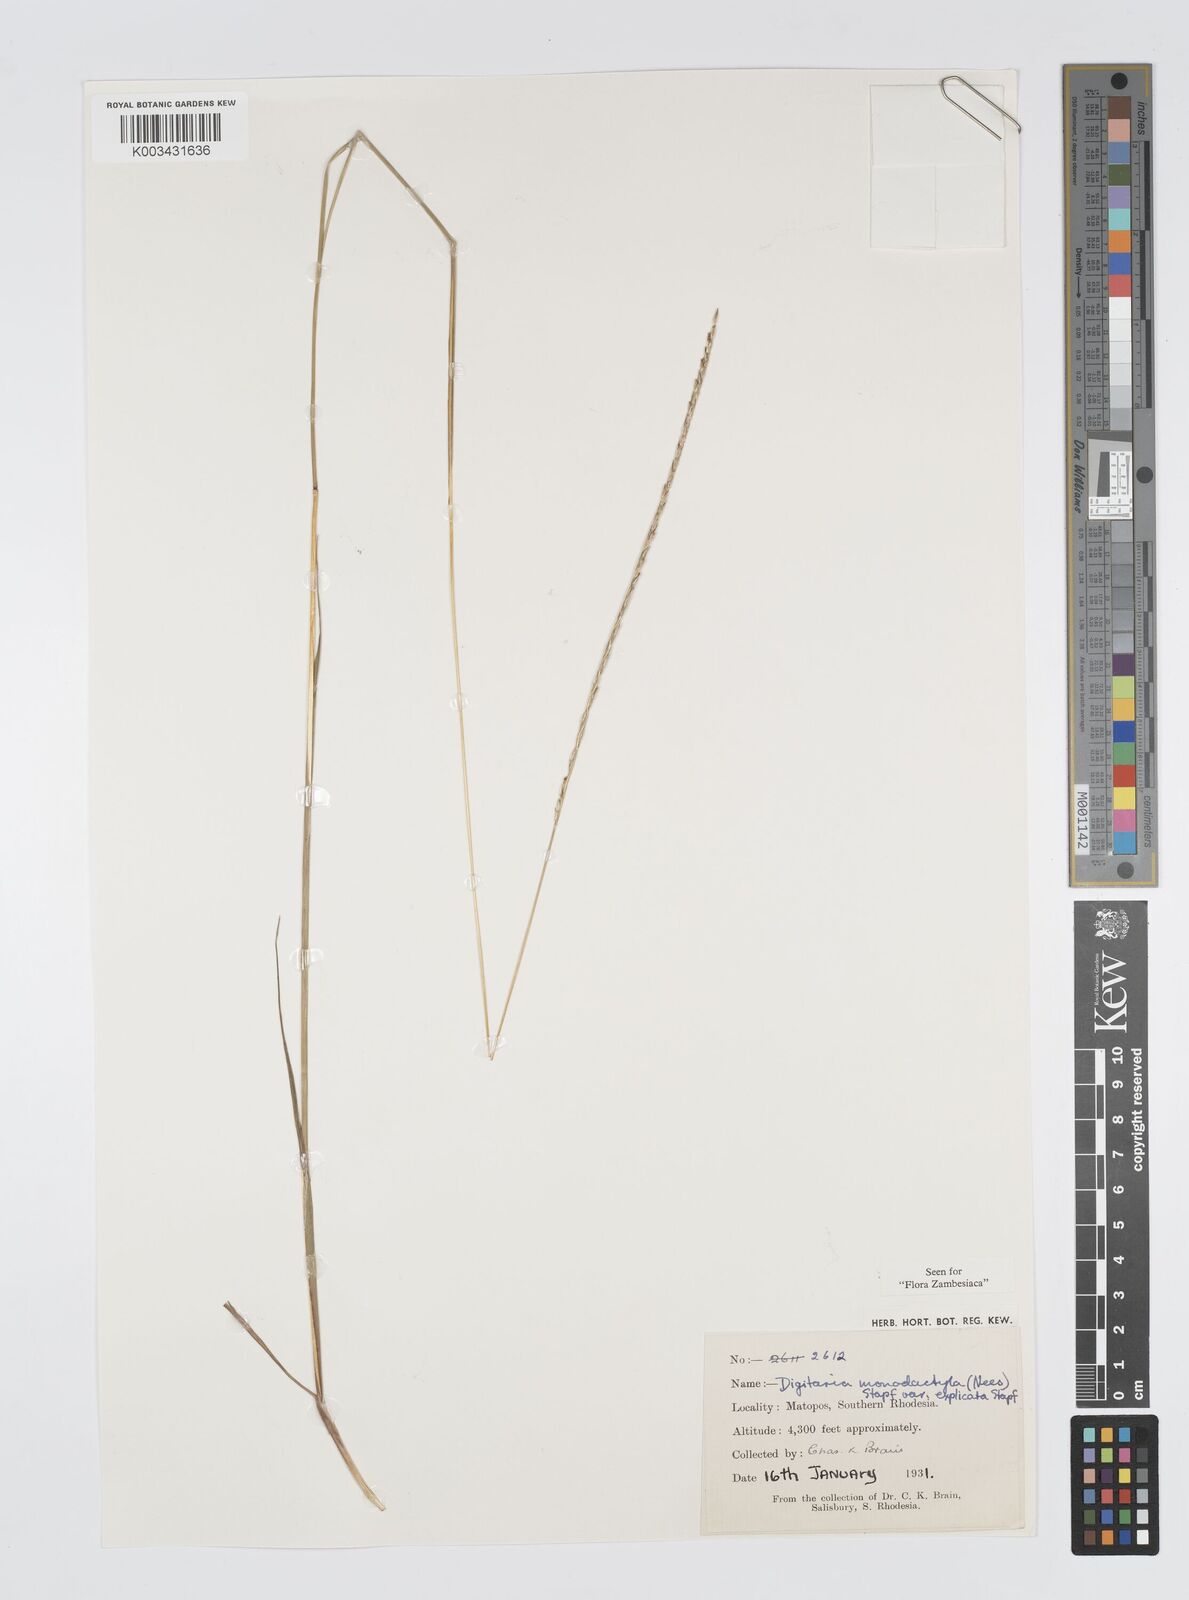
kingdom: Plantae
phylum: Tracheophyta
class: Liliopsida
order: Poales
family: Poaceae
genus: Digitaria
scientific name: Digitaria monodactyla
